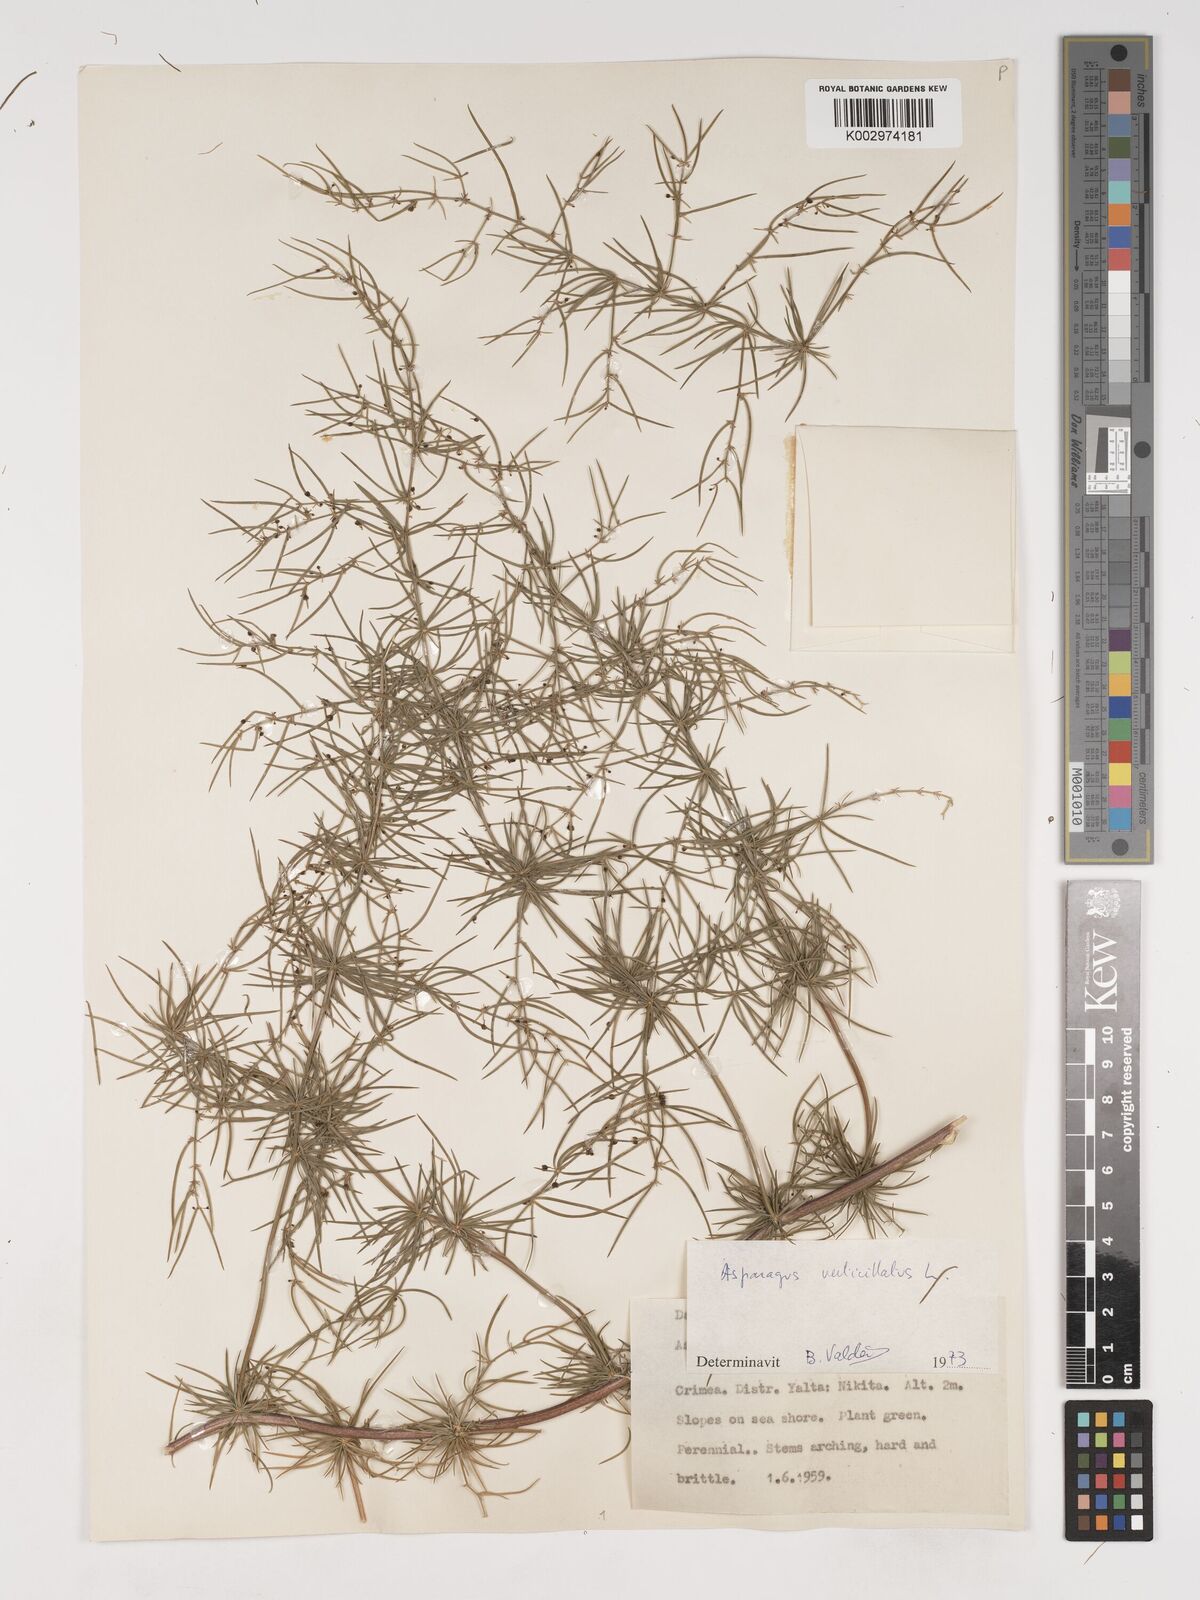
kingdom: Plantae
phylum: Tracheophyta
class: Liliopsida
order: Asparagales
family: Asparagaceae
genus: Asparagus
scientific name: Asparagus
